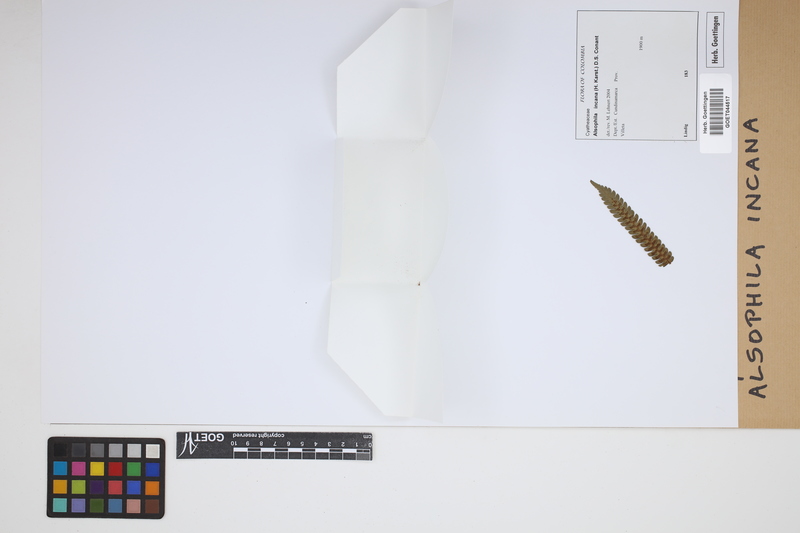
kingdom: Plantae
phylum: Tracheophyta
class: Polypodiopsida
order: Cyatheales
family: Cyatheaceae
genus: Alsophila
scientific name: Alsophila incana
